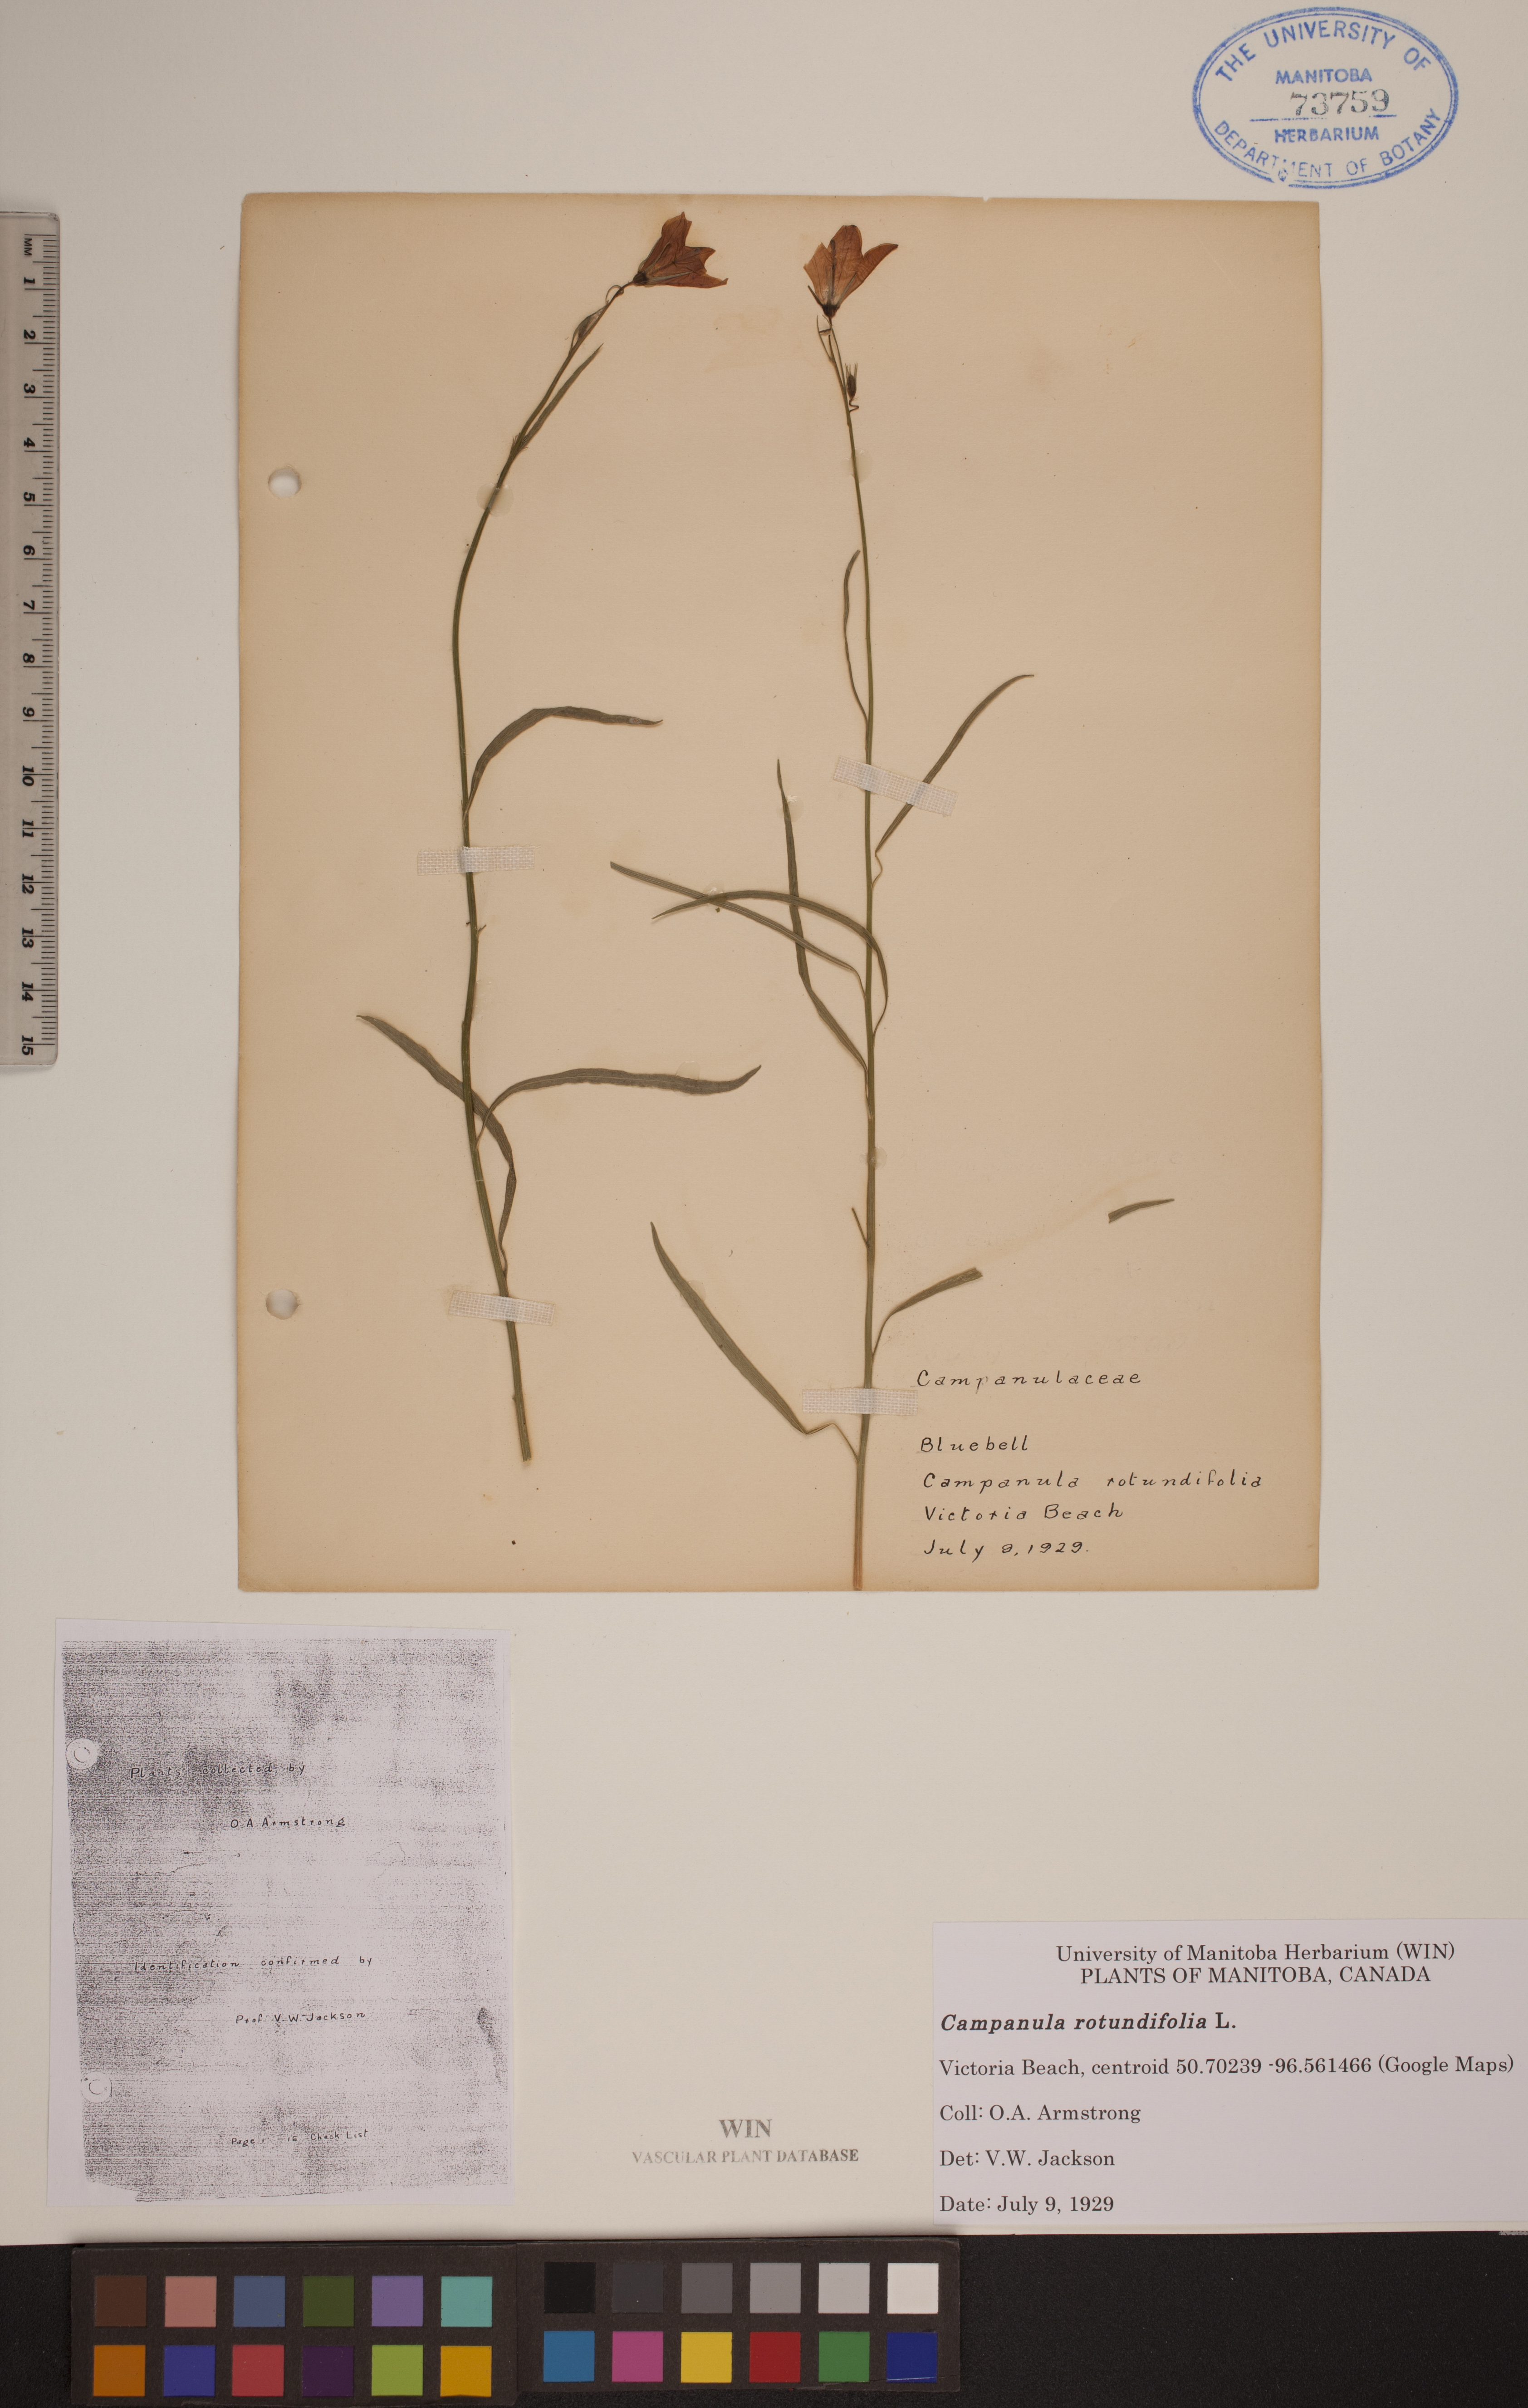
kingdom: Plantae
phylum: Tracheophyta
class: Magnoliopsida
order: Asterales
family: Campanulaceae
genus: Campanula
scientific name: Campanula rotundifolia
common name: Harebell
